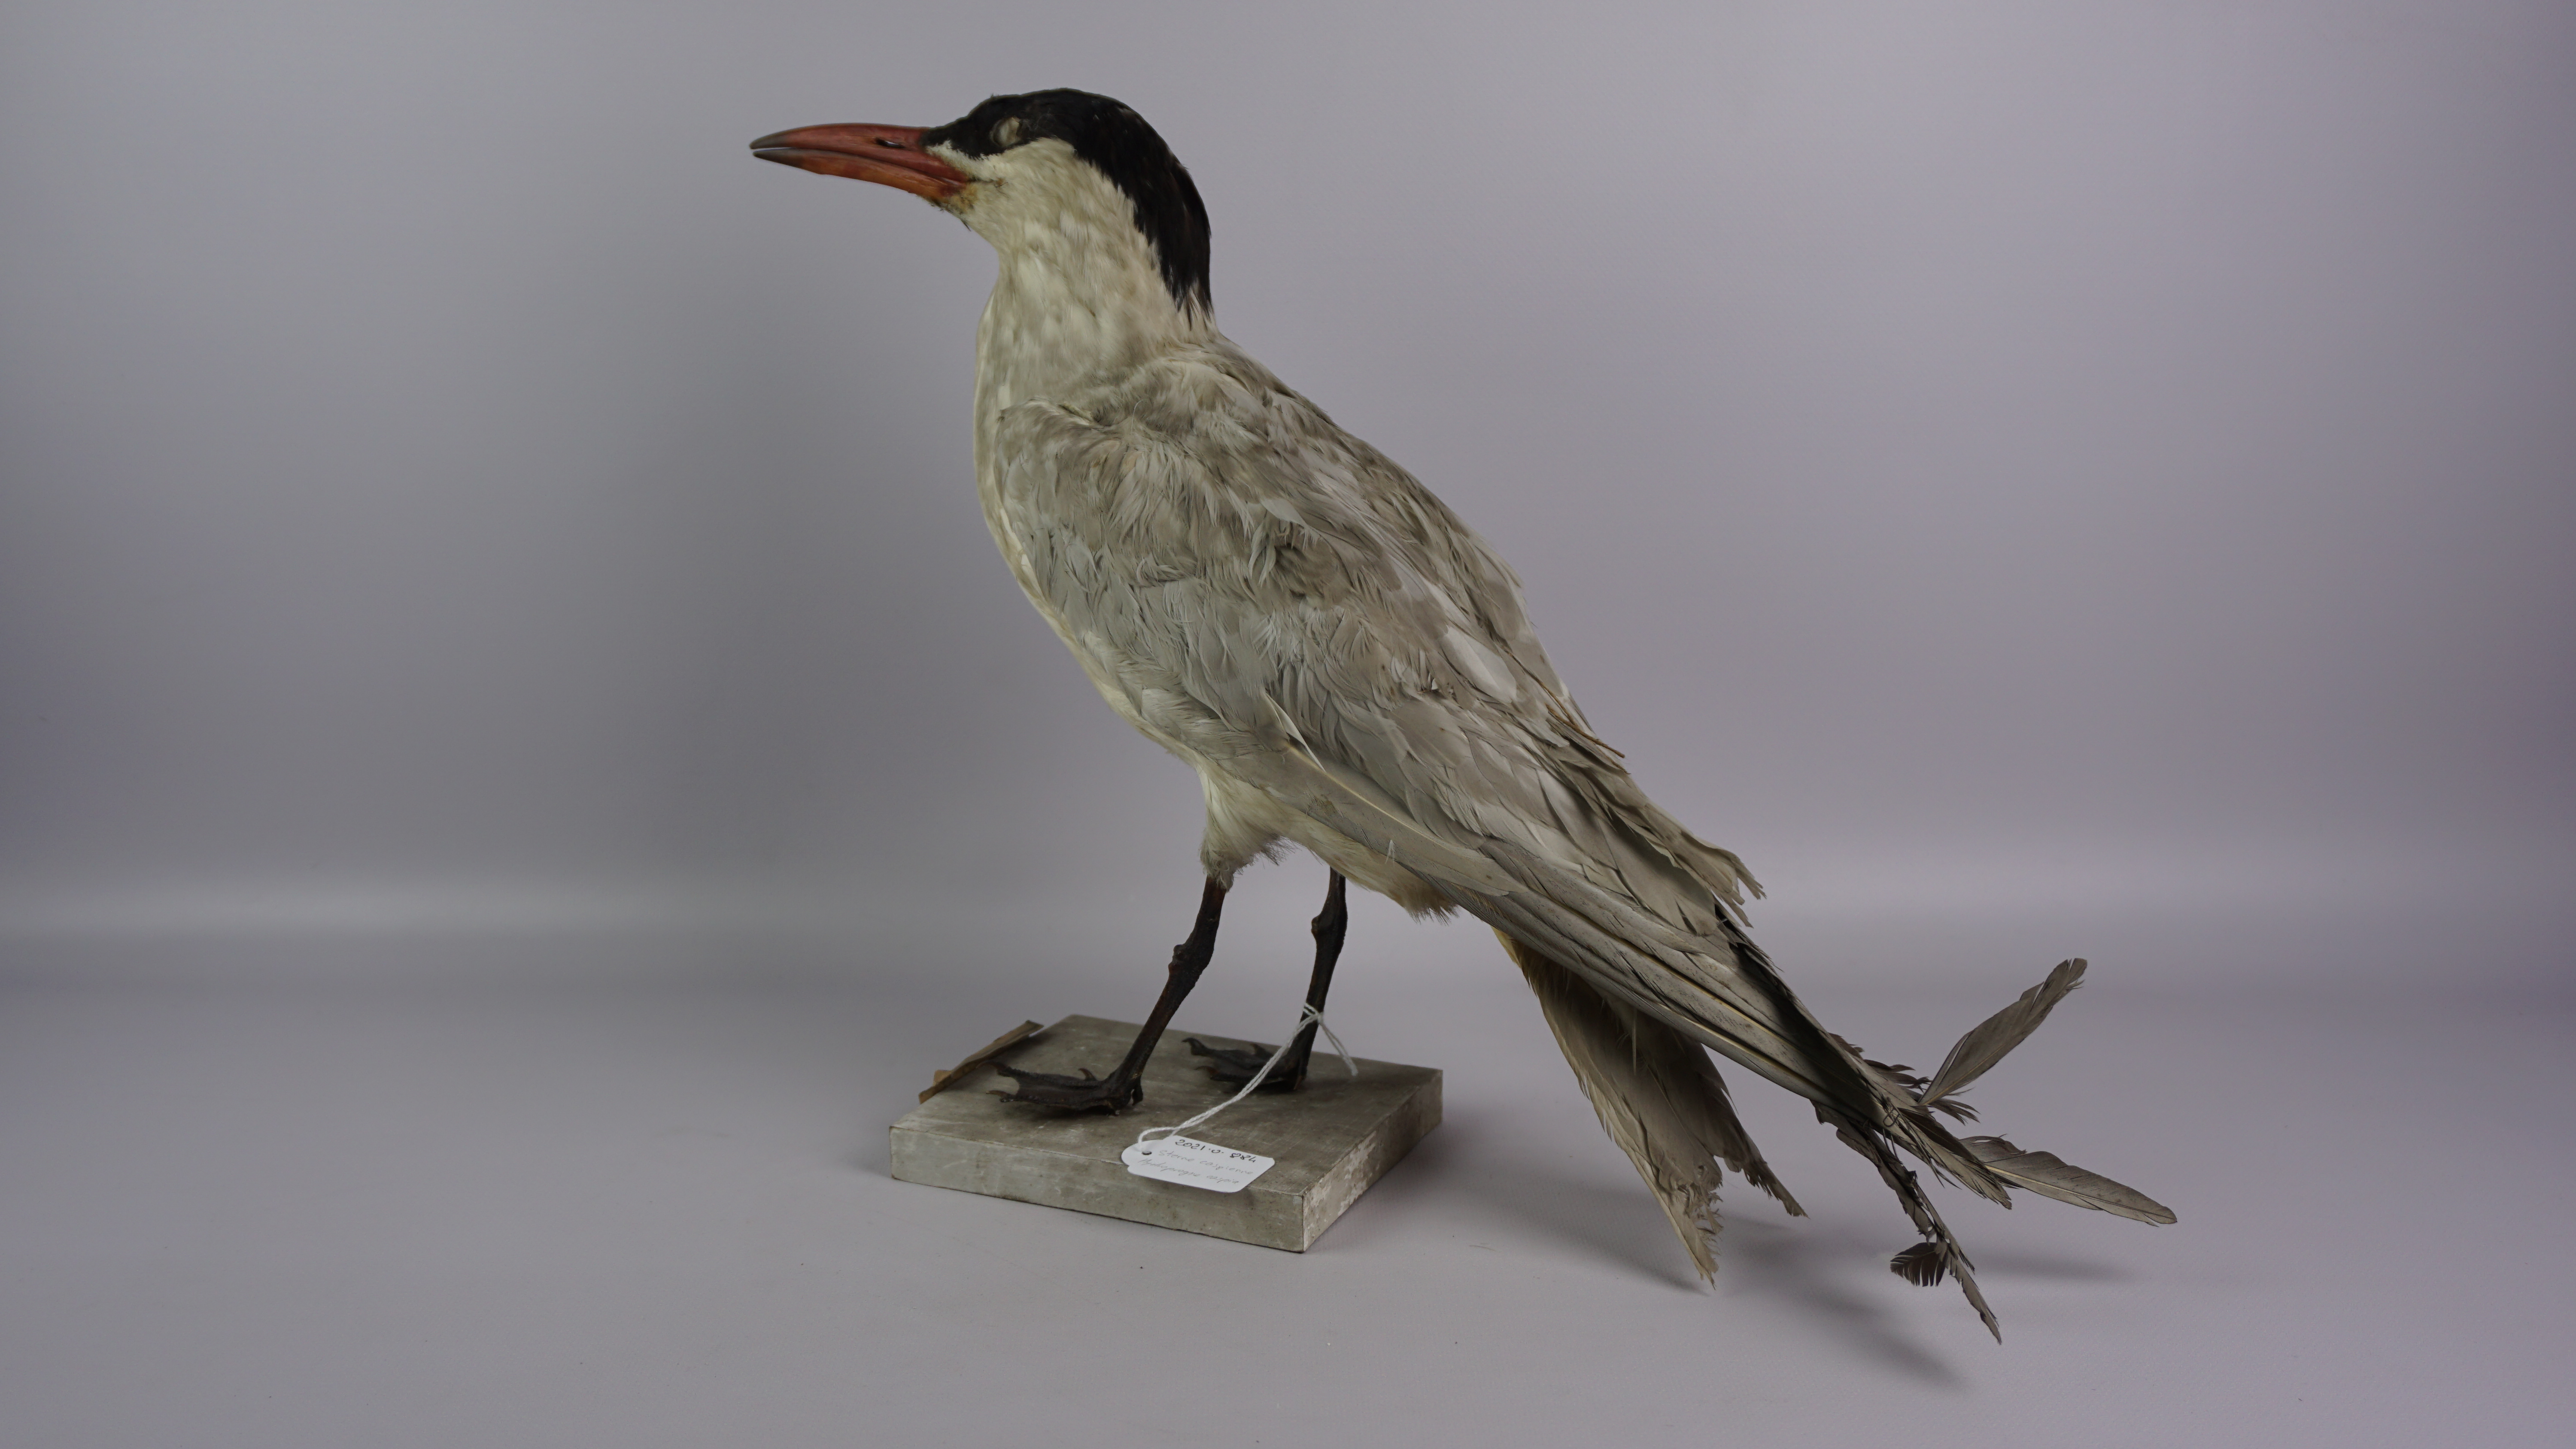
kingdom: Animalia
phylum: Chordata
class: Aves
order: Charadriiformes
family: Laridae
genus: Hydroprogne
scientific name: Hydroprogne caspia
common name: Caspian tern
